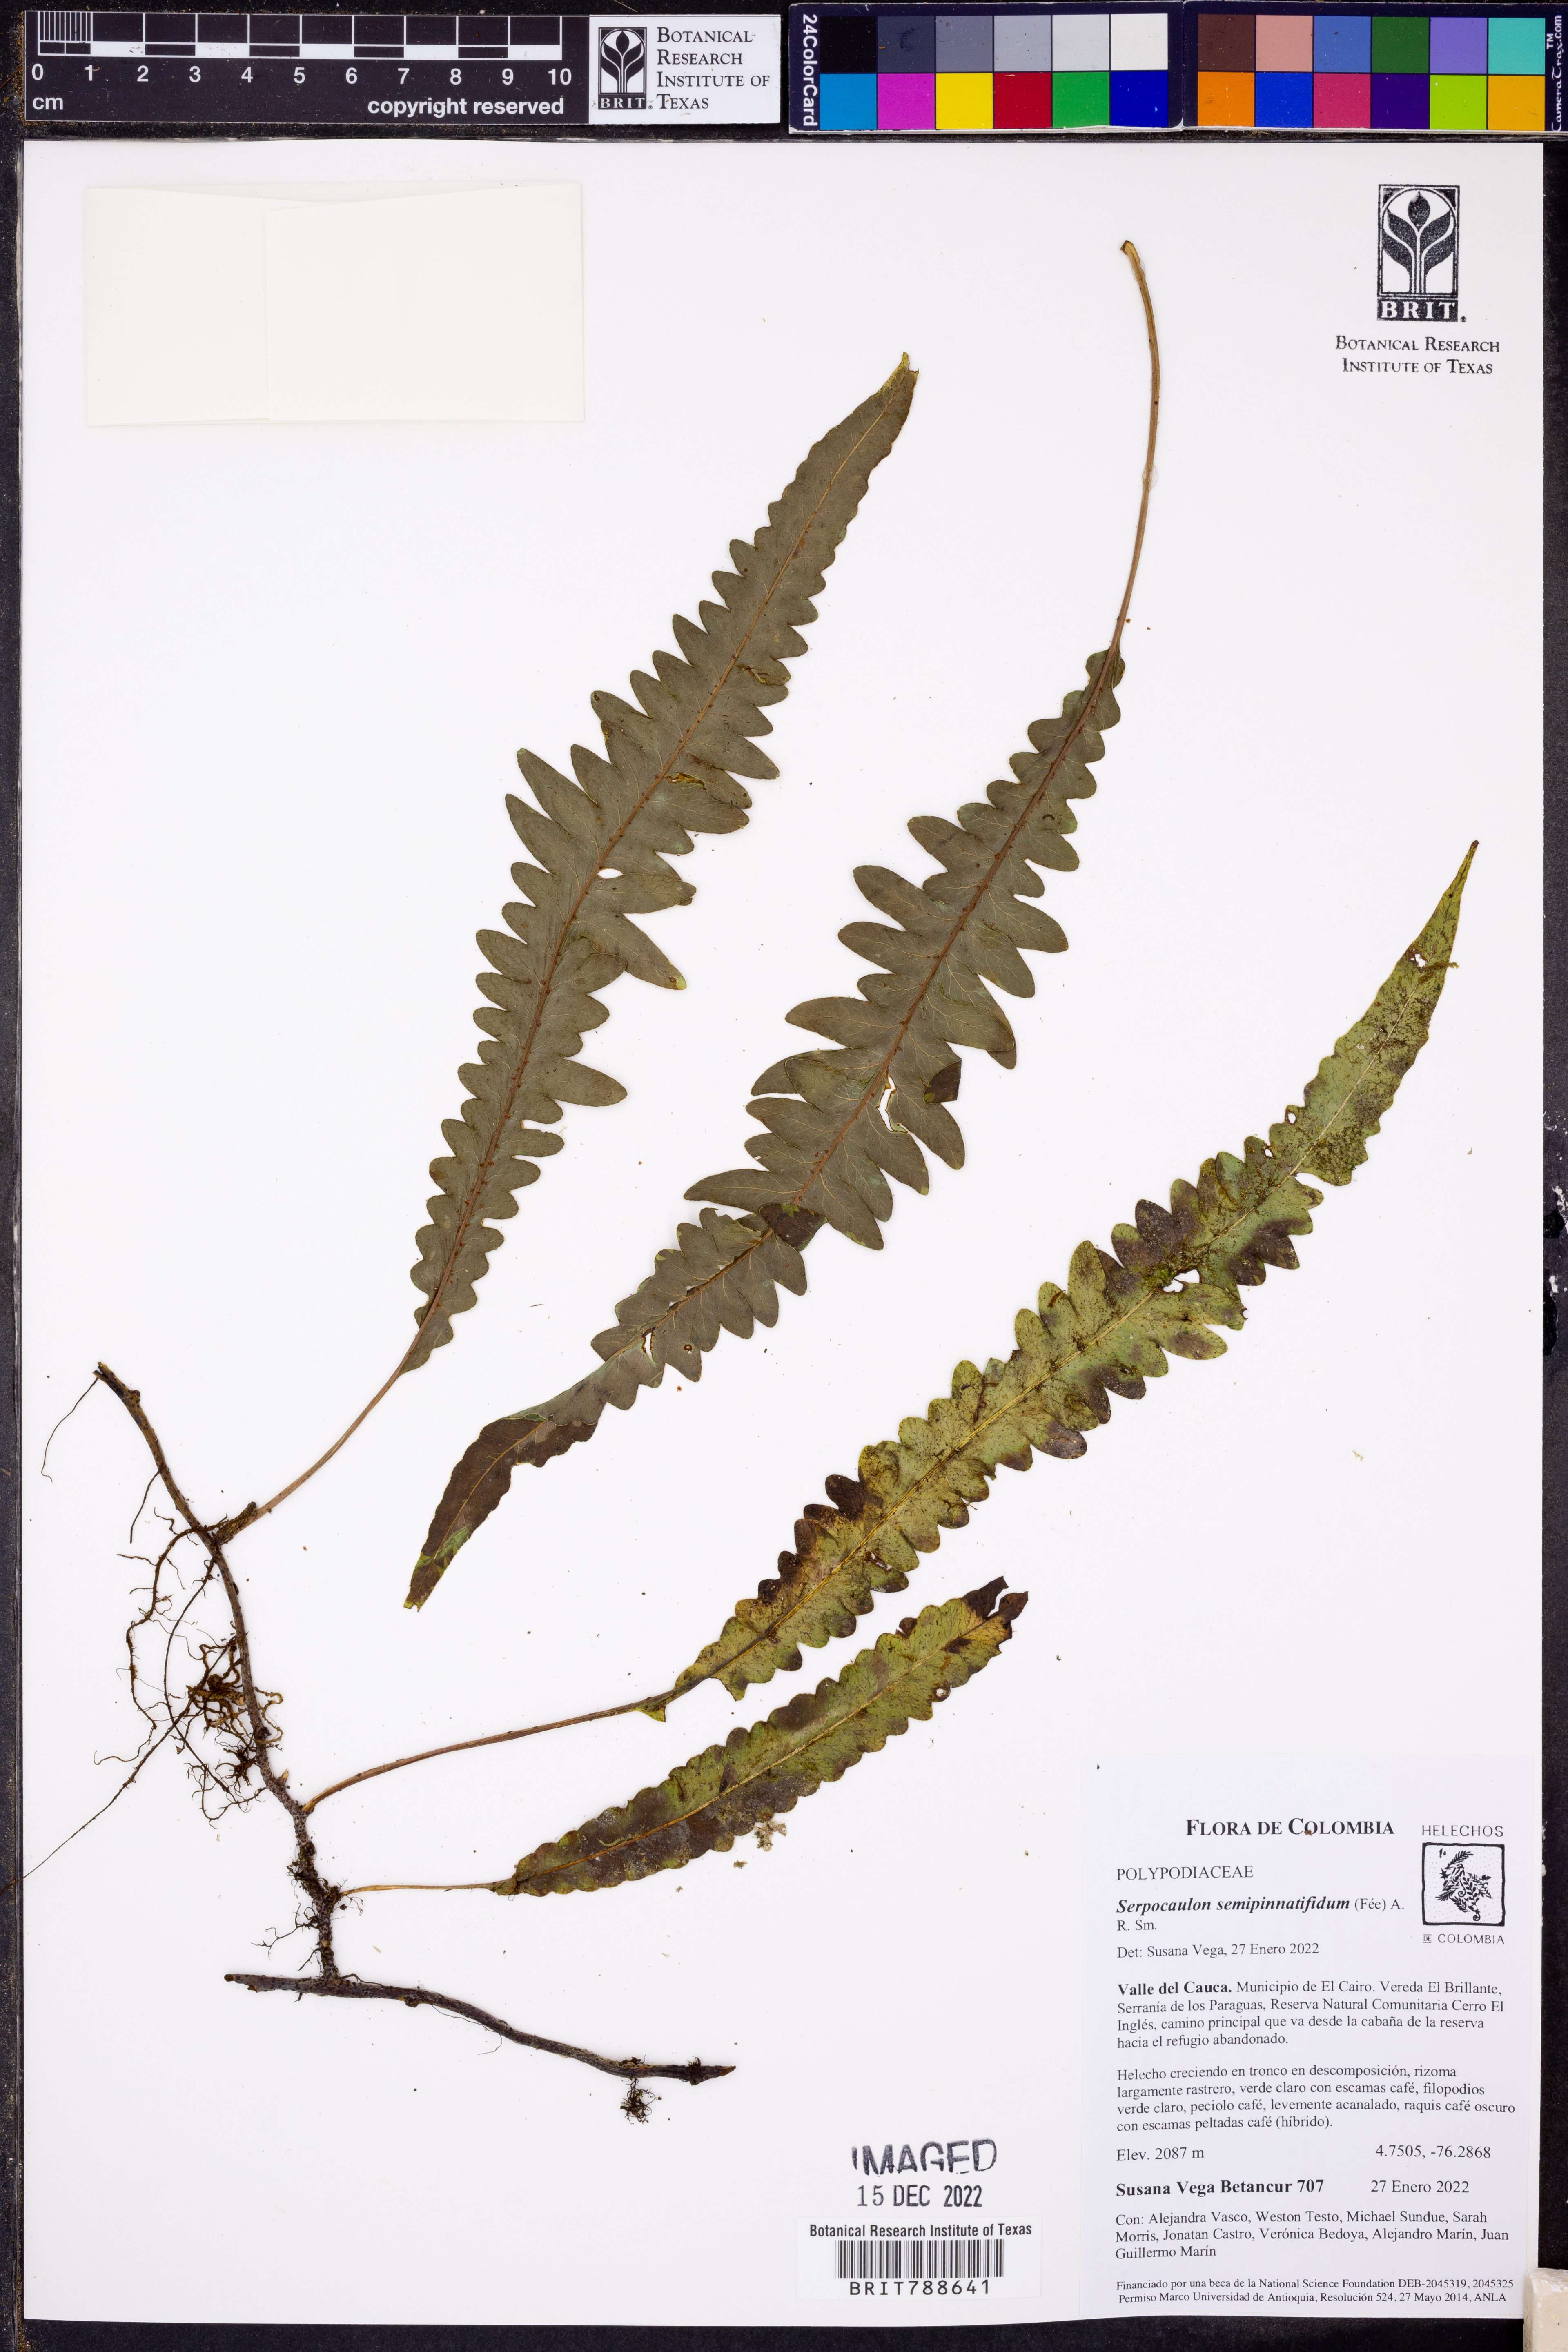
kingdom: Plantae
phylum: Tracheophyta
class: Polypodiopsida
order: Polypodiales
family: Polypodiaceae
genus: Serpocaulon
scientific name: Serpocaulon semipinnatifidum
